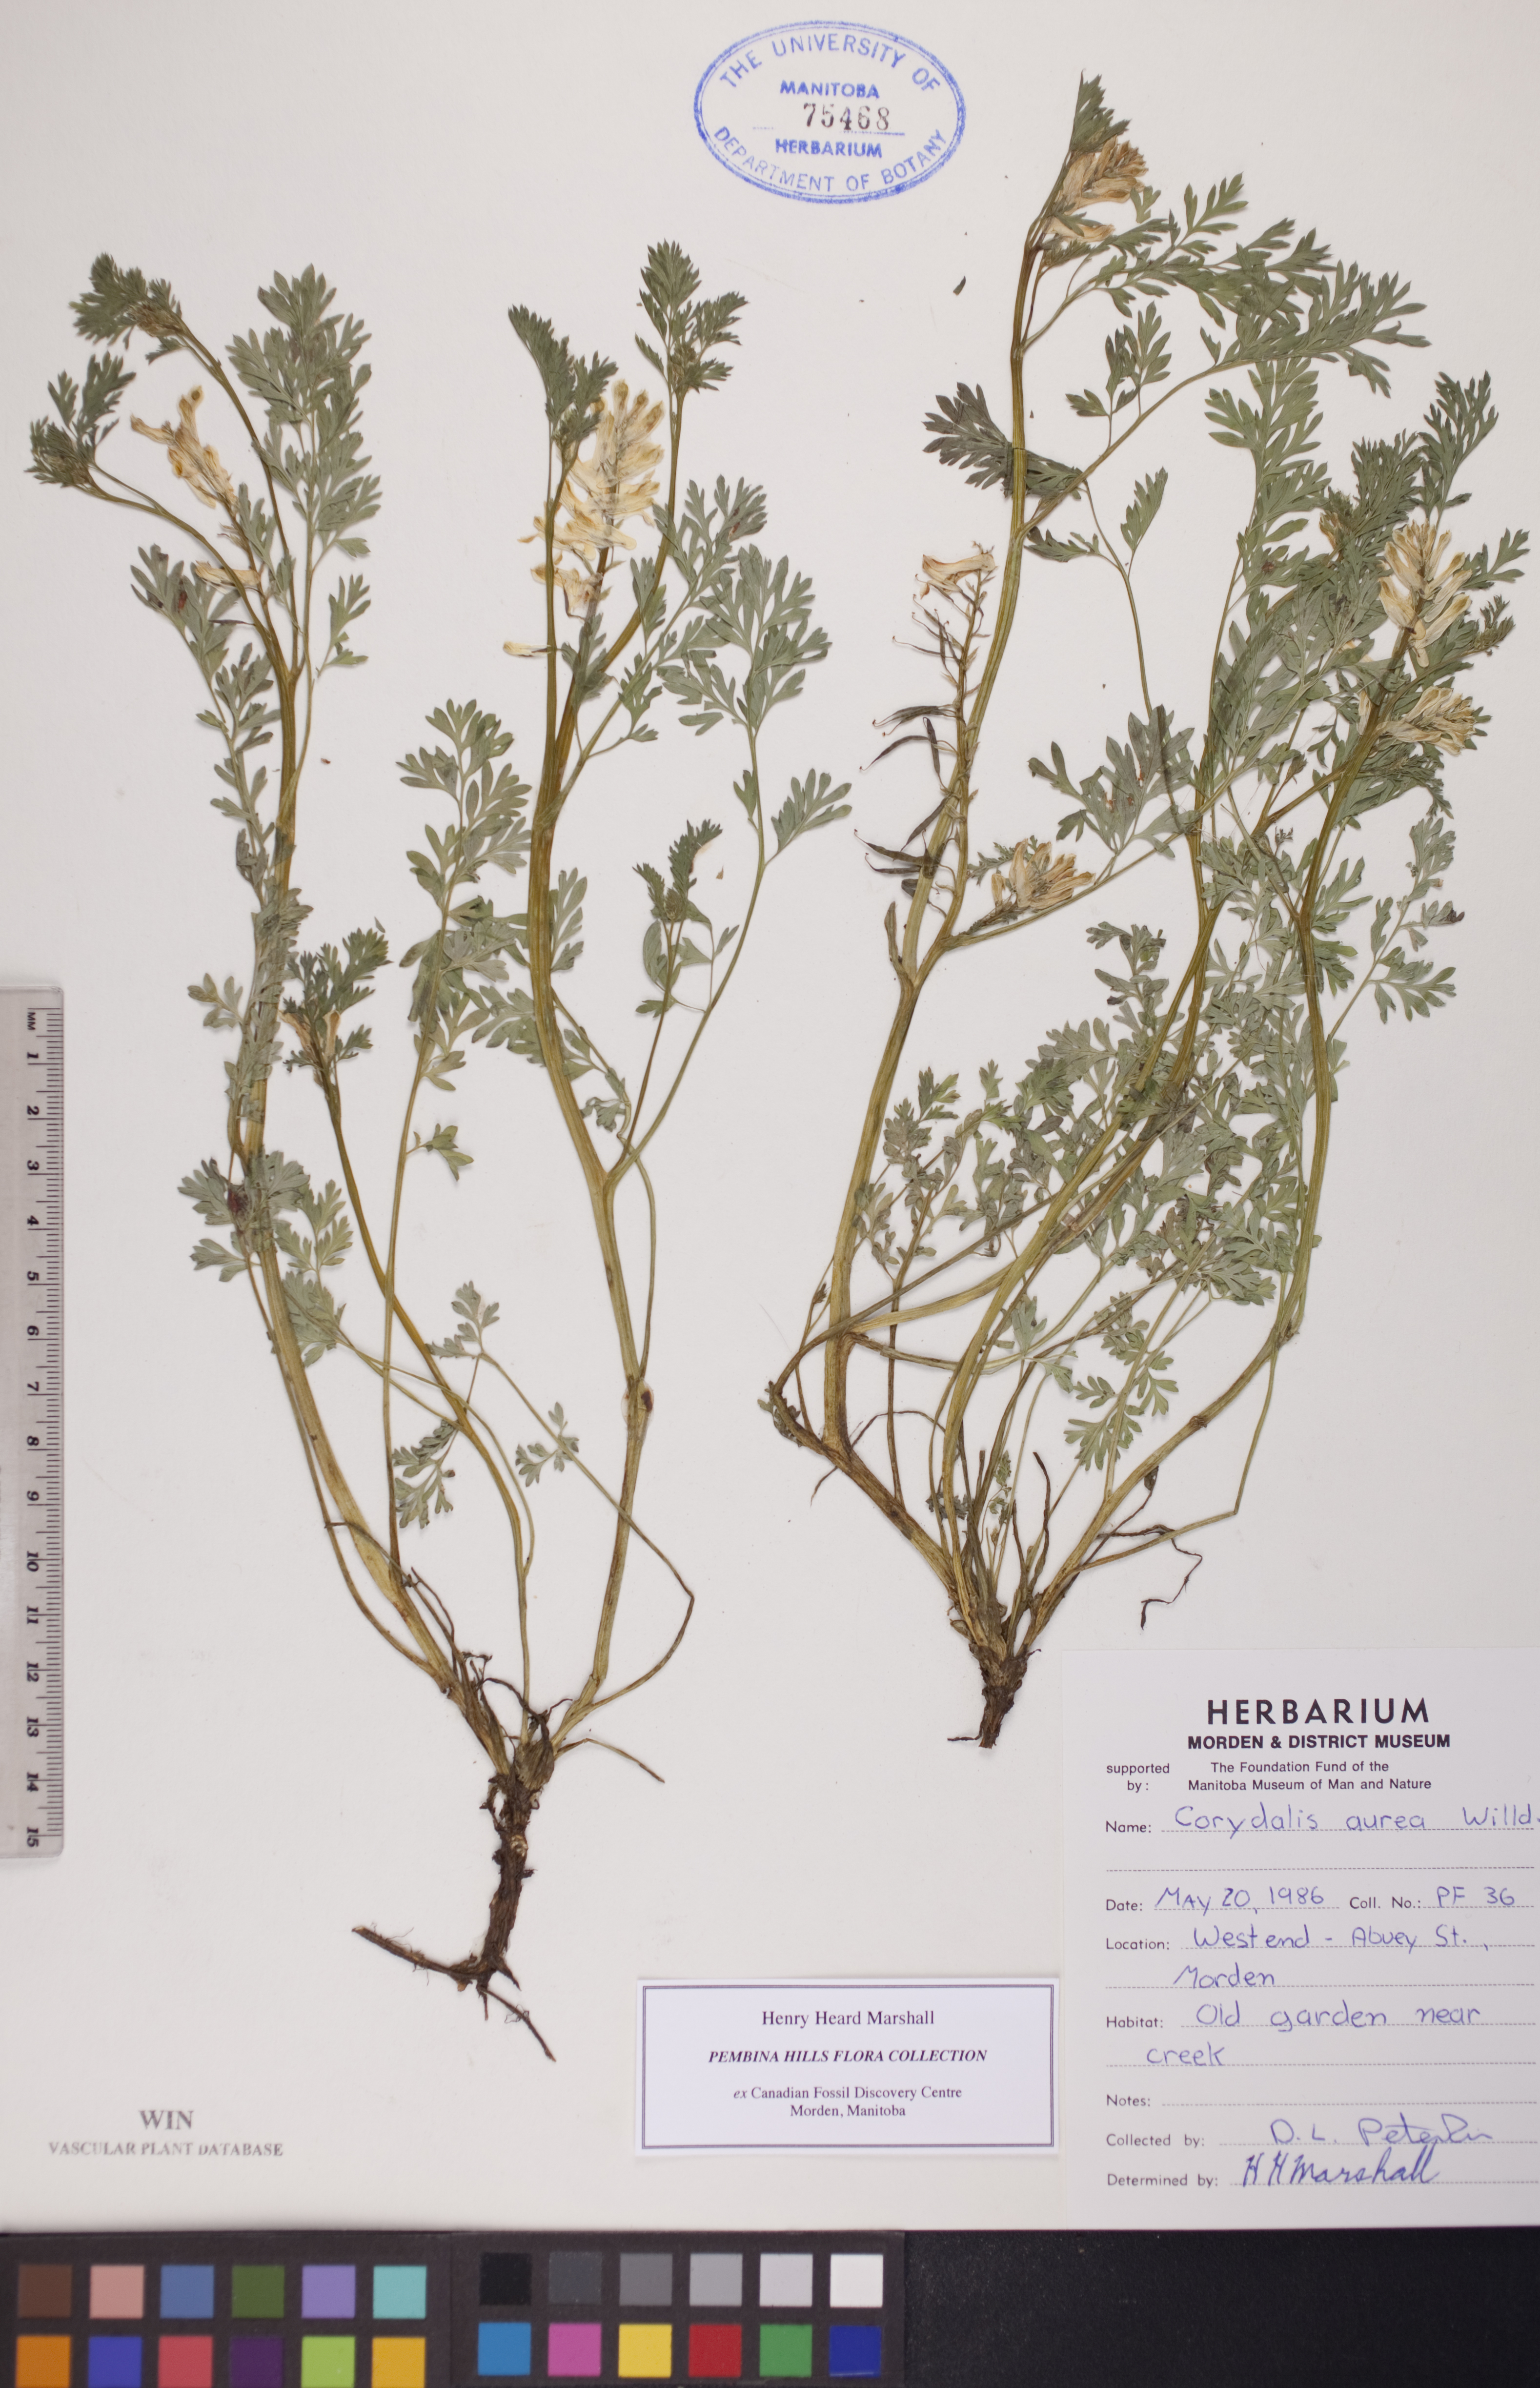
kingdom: Plantae
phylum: Tracheophyta
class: Magnoliopsida
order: Ranunculales
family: Papaveraceae
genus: Corydalis
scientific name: Corydalis aurea
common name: Golden corydalis
